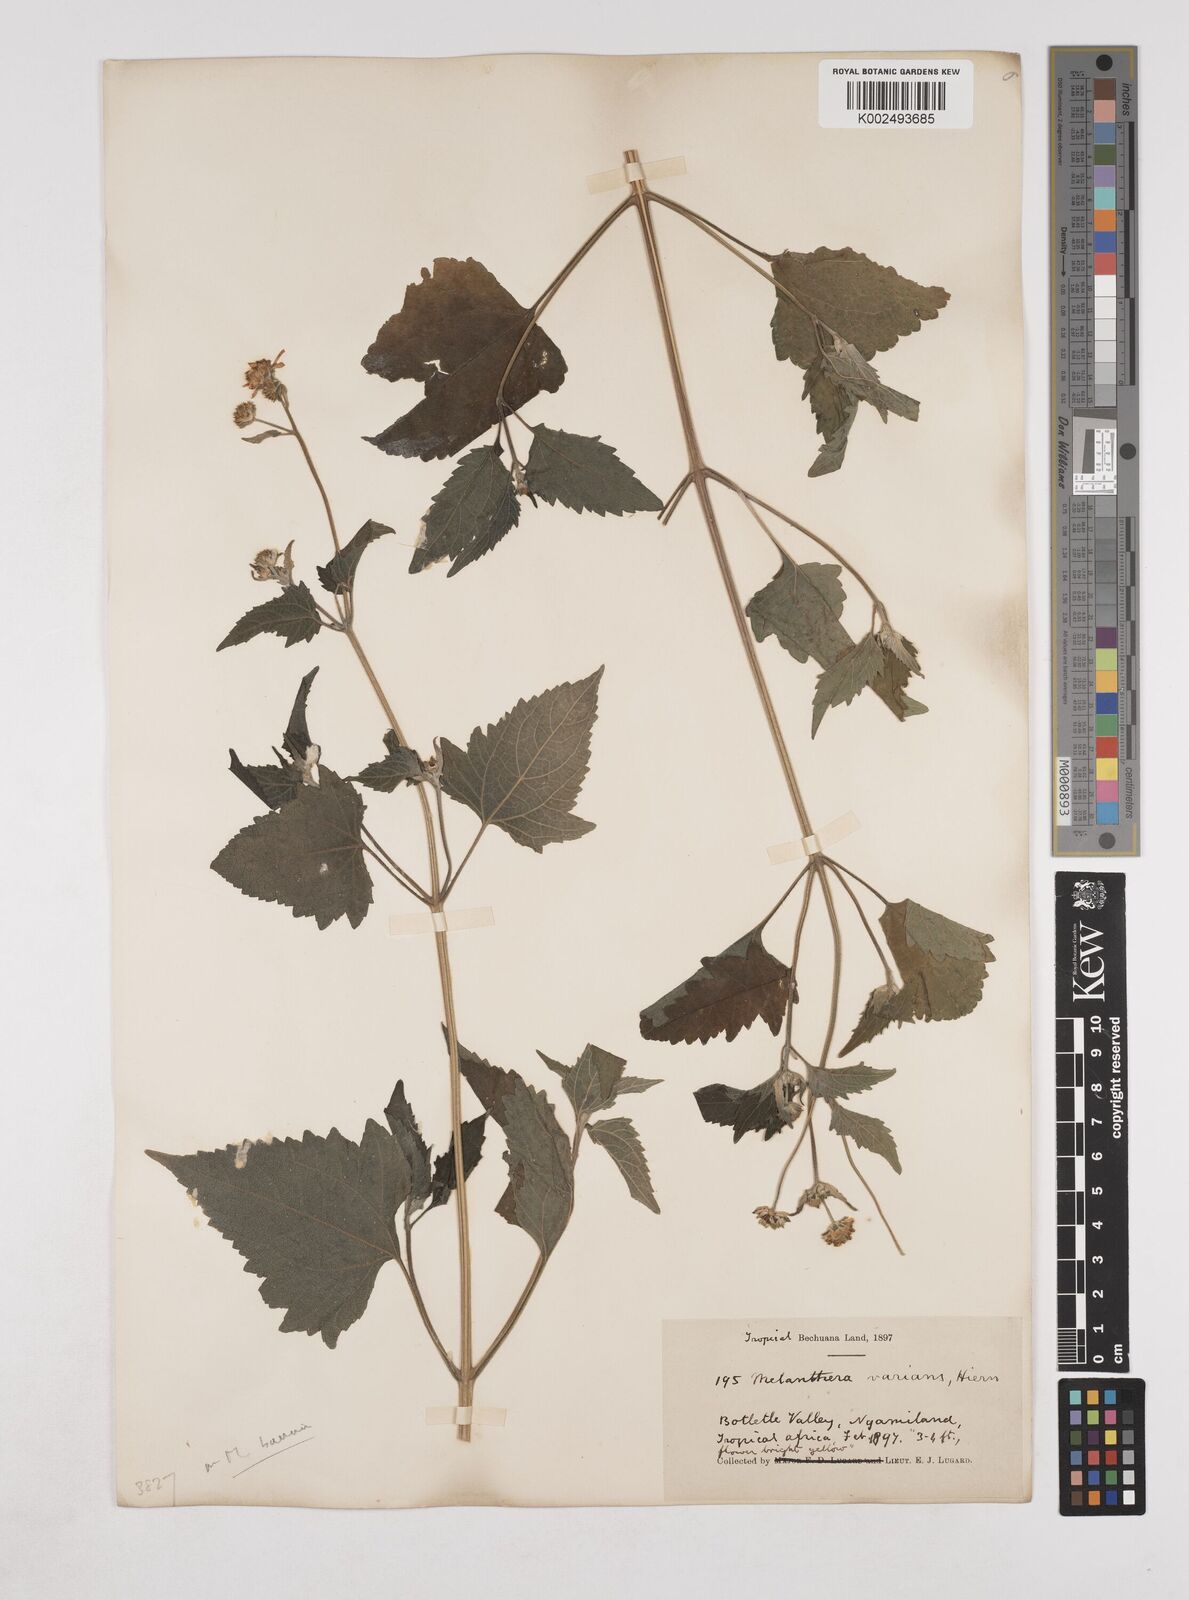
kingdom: Plantae
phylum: Tracheophyta
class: Magnoliopsida
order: Asterales
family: Asteraceae
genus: Lipotriche
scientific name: Lipotriche marlothiana
